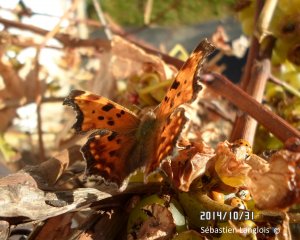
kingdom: Animalia
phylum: Arthropoda
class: Insecta
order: Lepidoptera
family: Nymphalidae
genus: Polygonia
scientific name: Polygonia comma
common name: Eastern Comma
